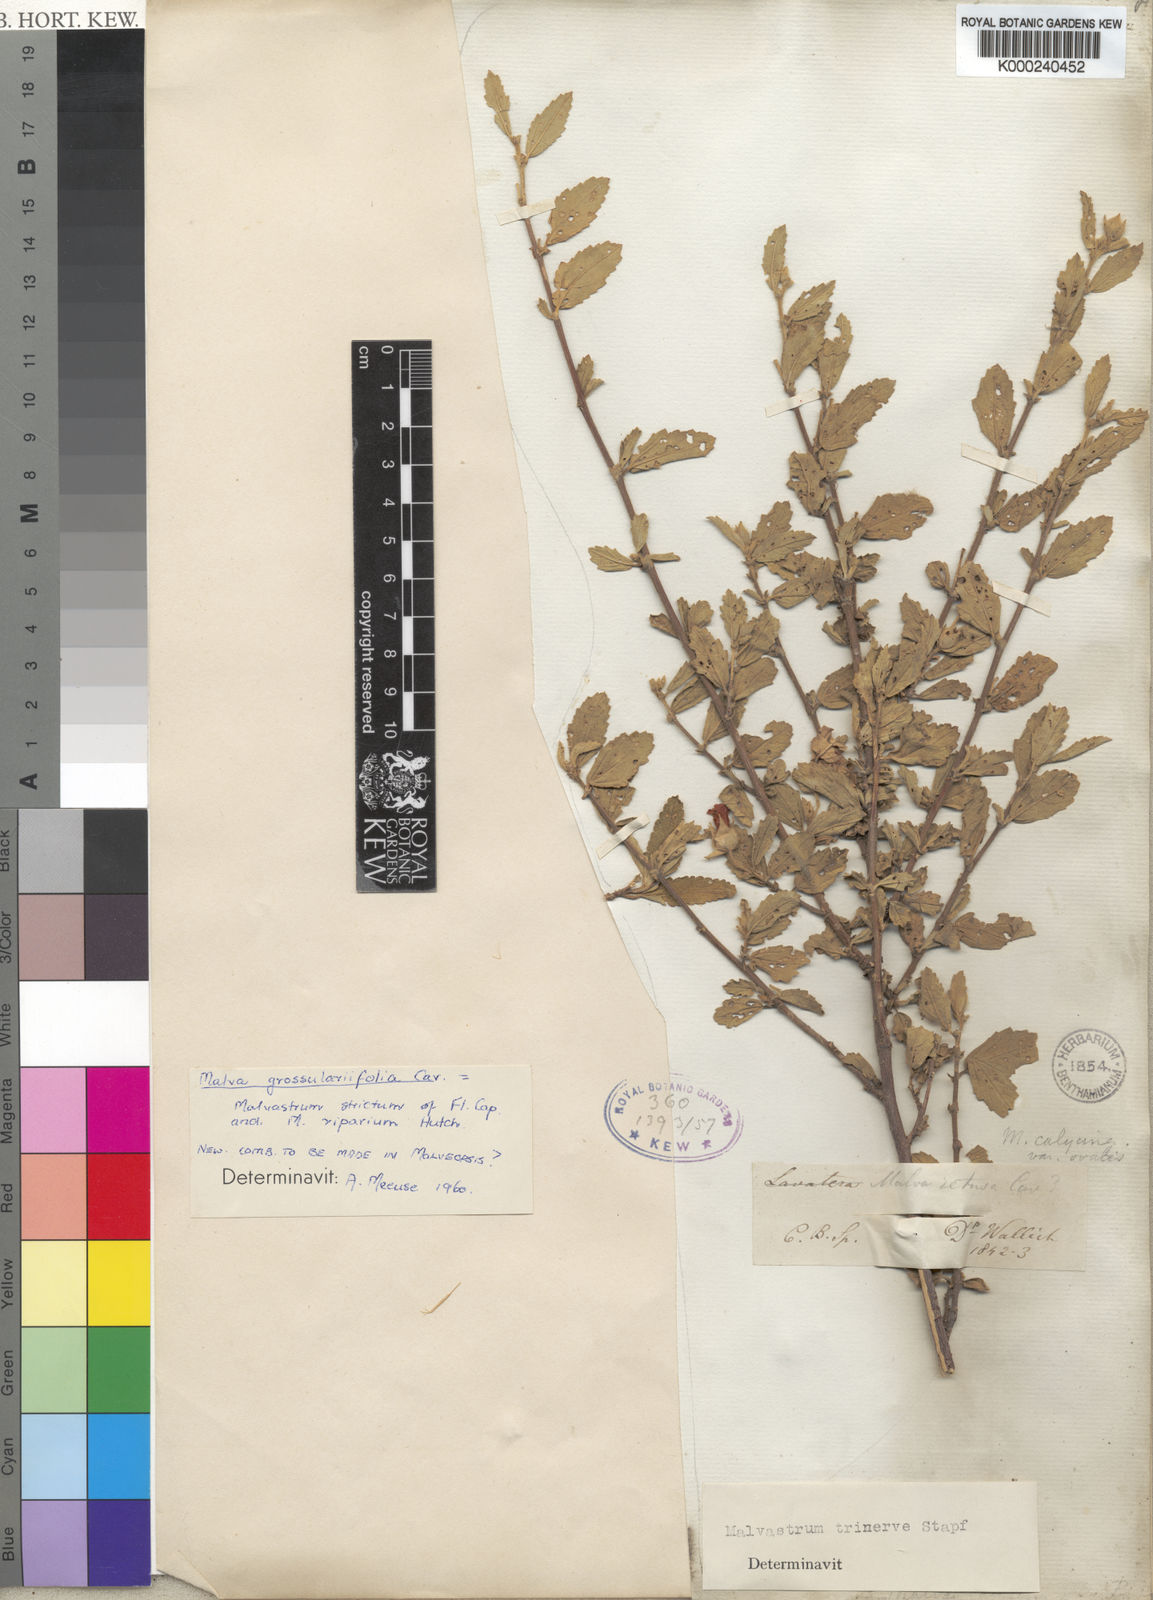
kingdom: Plantae
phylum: Tracheophyta
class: Magnoliopsida
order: Malvales
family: Malvaceae
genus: Anisodontea
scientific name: Anisodontea scabrosa
